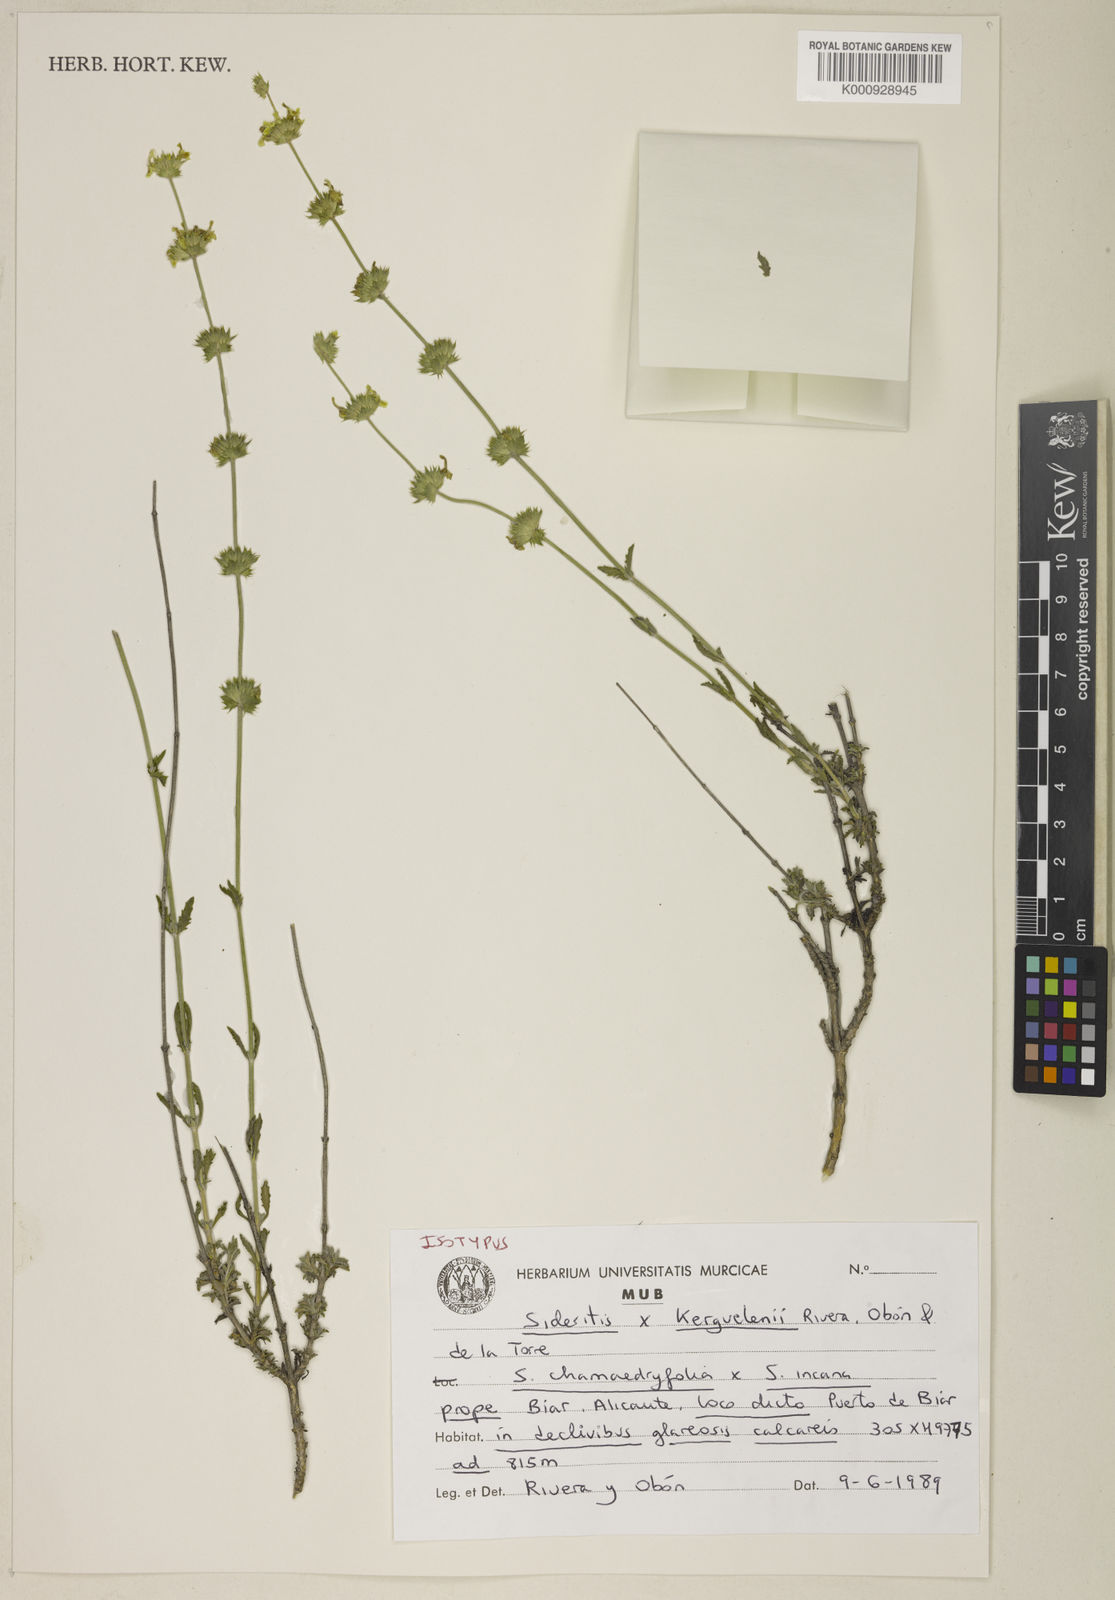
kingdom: Plantae
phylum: Tracheophyta
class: Magnoliopsida
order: Lamiales
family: Lamiaceae
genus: Sideritis
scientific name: Sideritis
